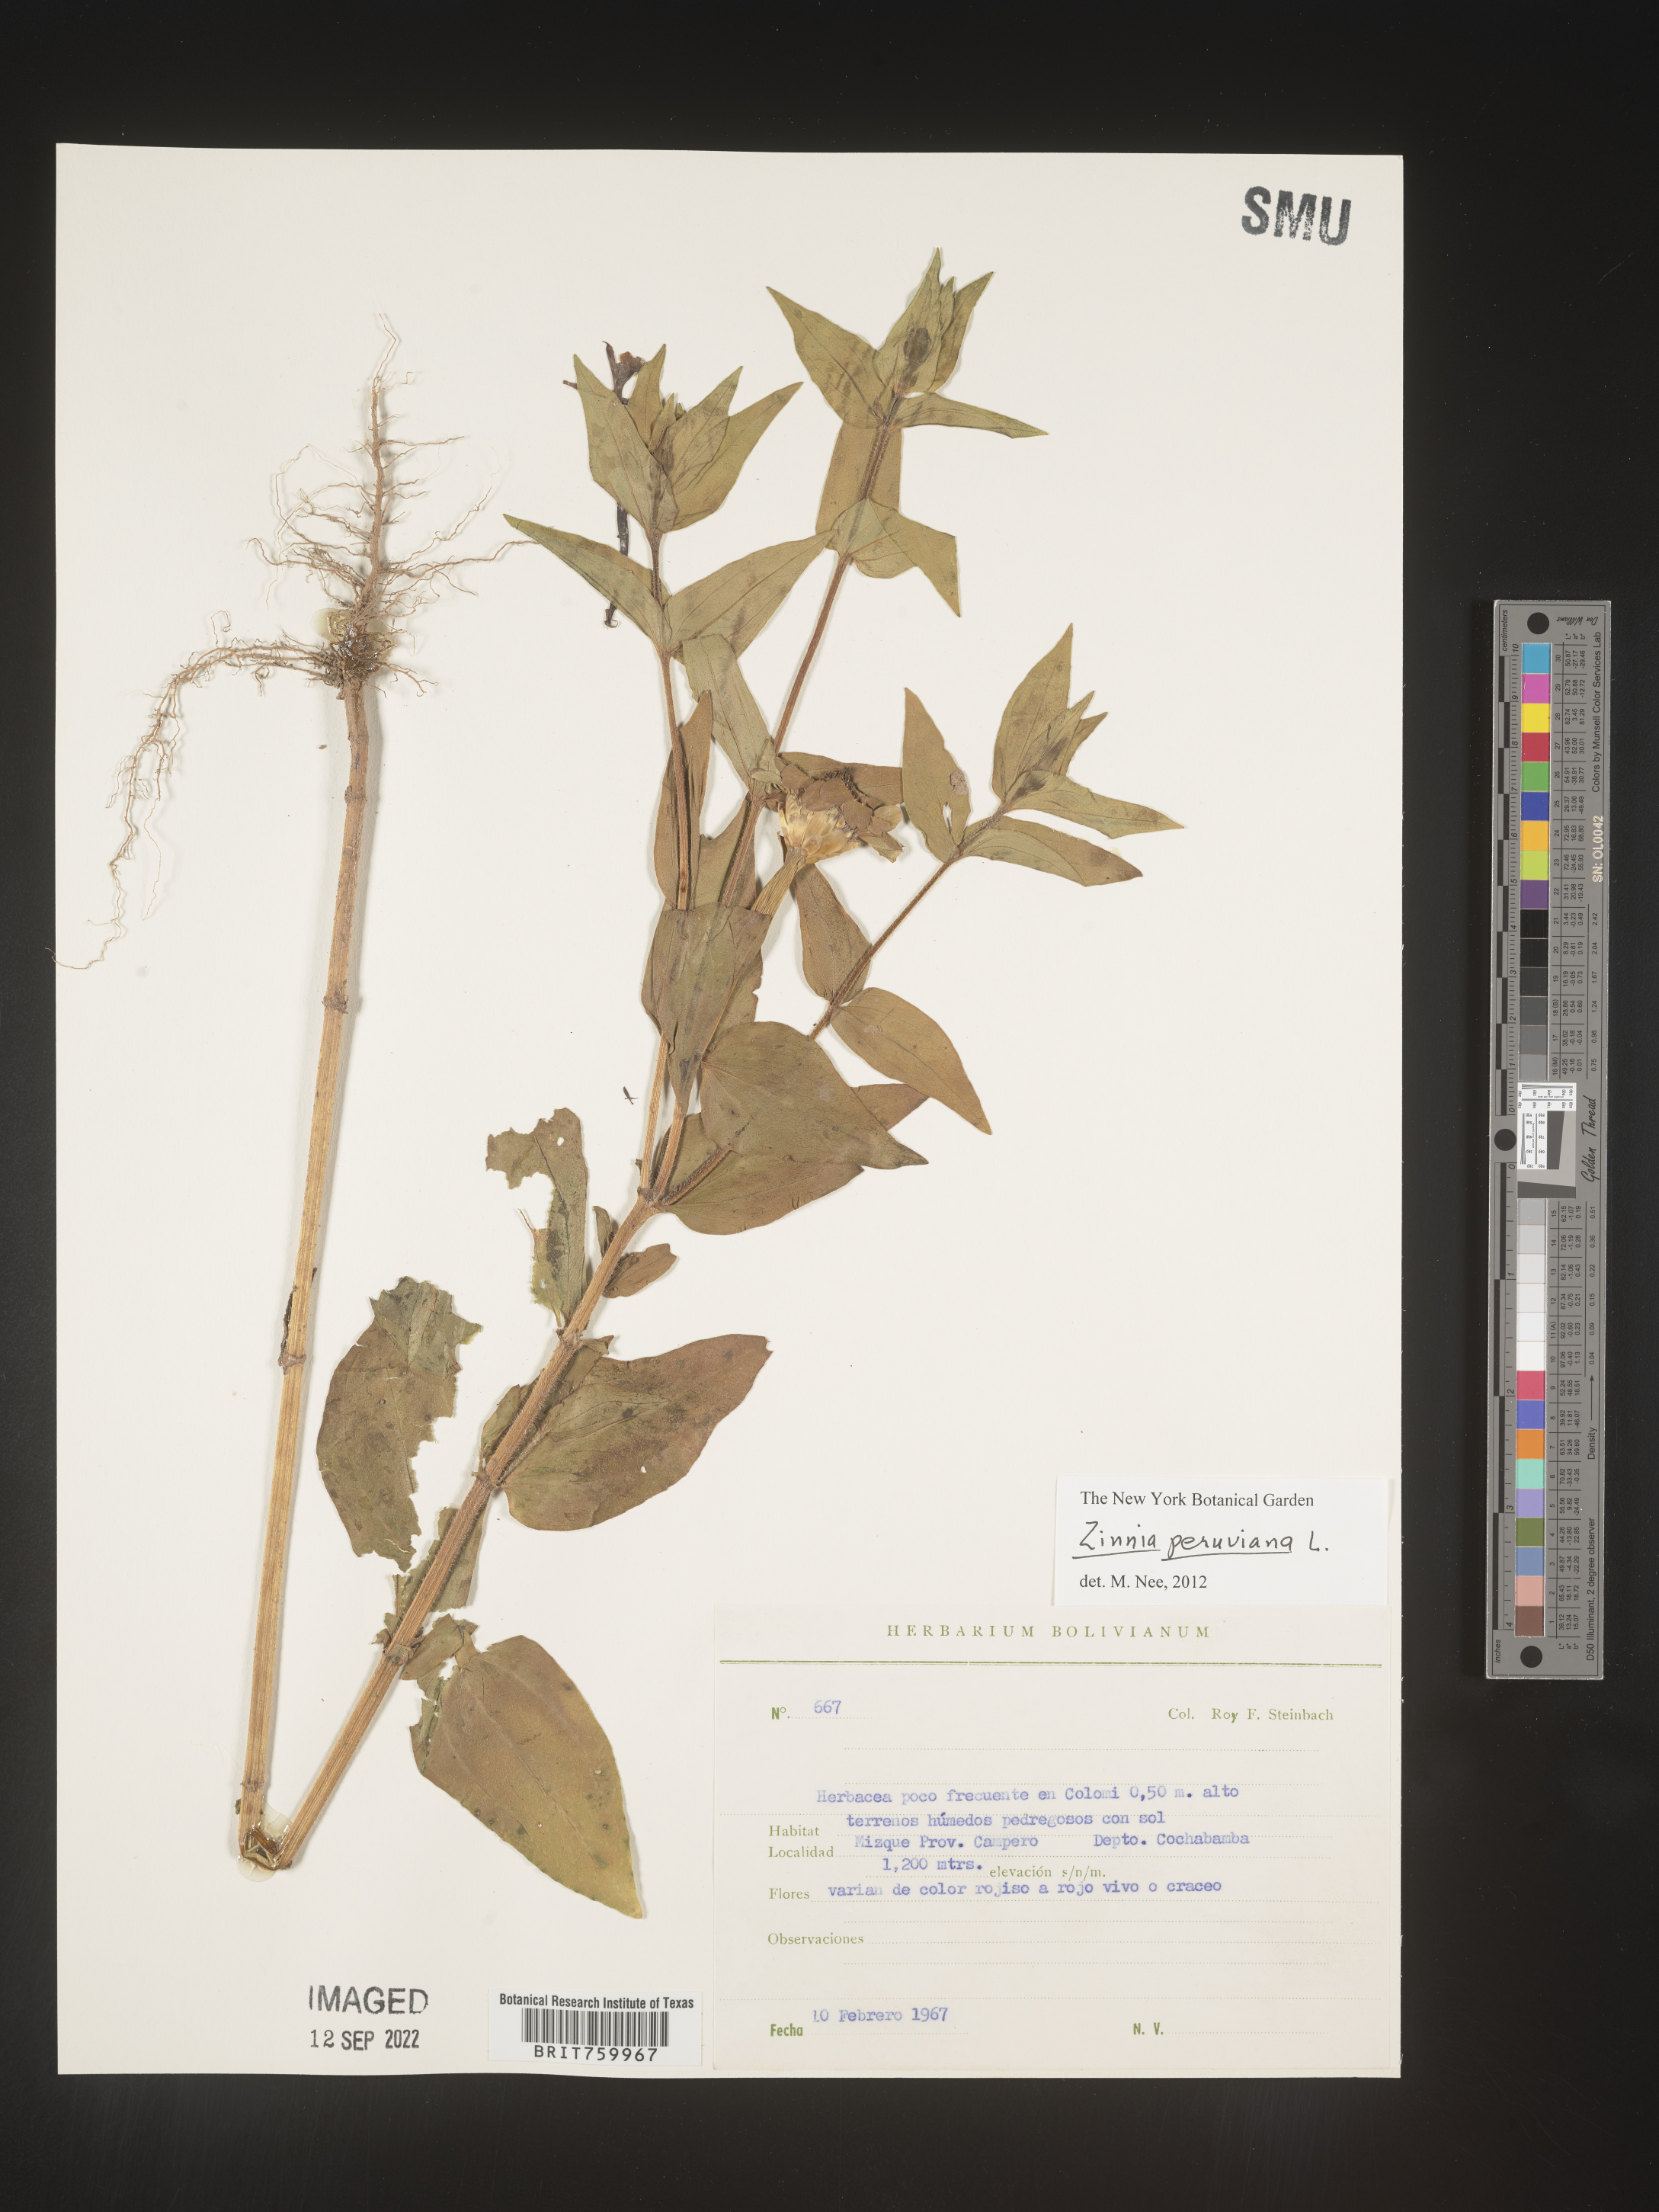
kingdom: Plantae
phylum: Tracheophyta
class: Magnoliopsida
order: Asterales
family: Asteraceae
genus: Zinnia
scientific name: Zinnia
